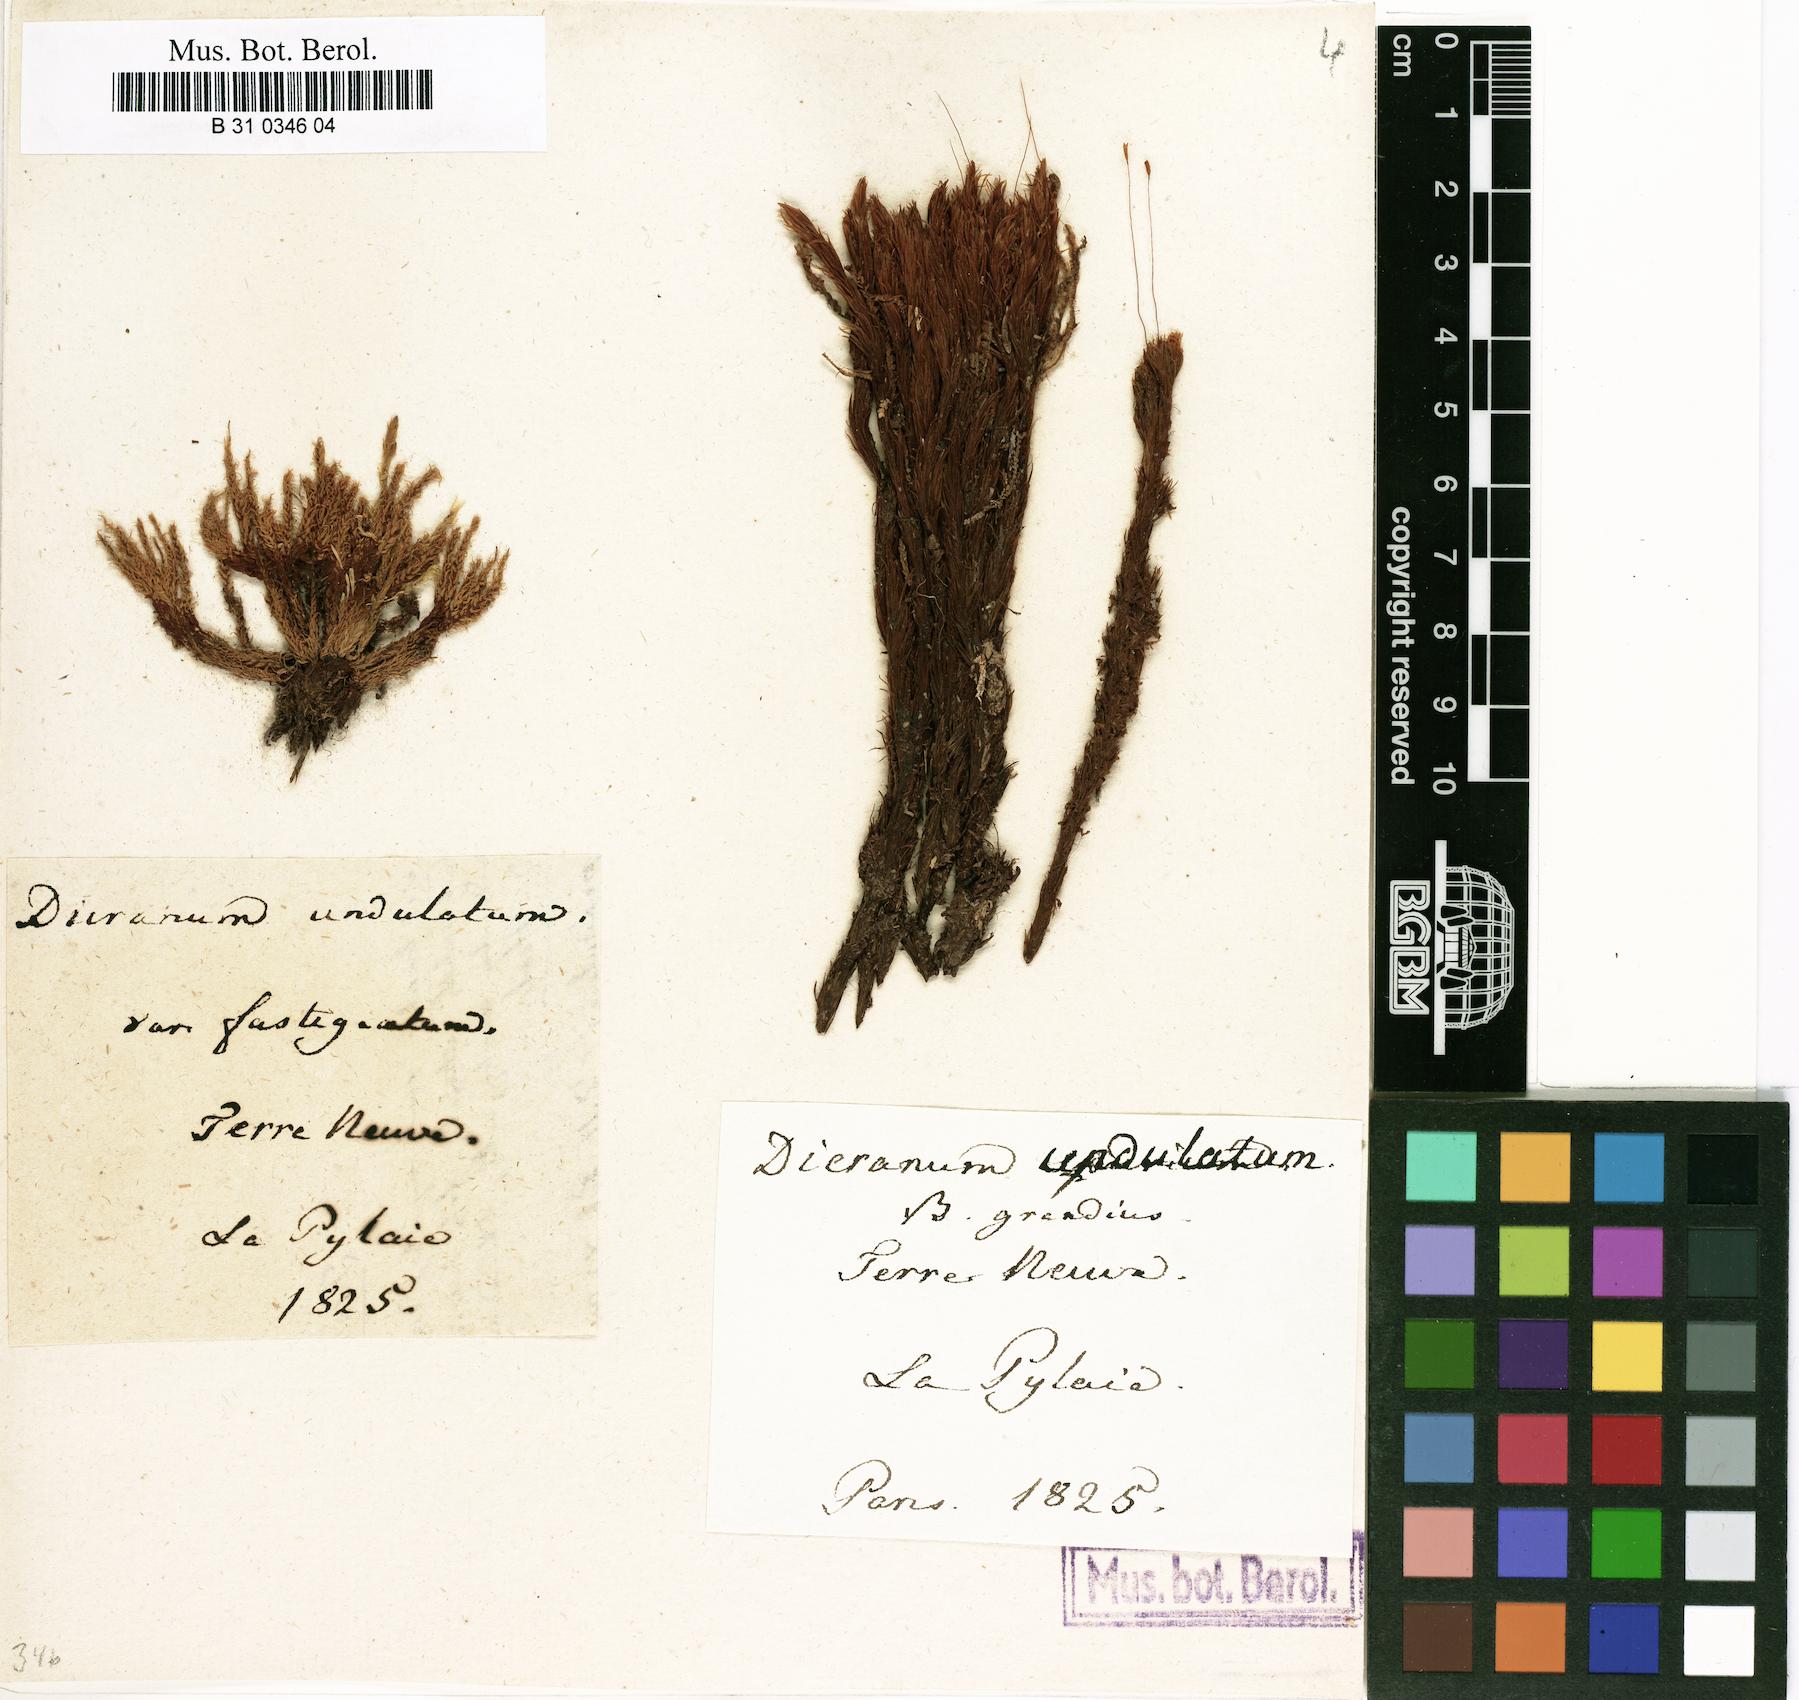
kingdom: Plantae
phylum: Bryophyta
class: Bryopsida
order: Dicranales
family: Dicranaceae
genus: Dicranum
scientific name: Dicranum undulatum
